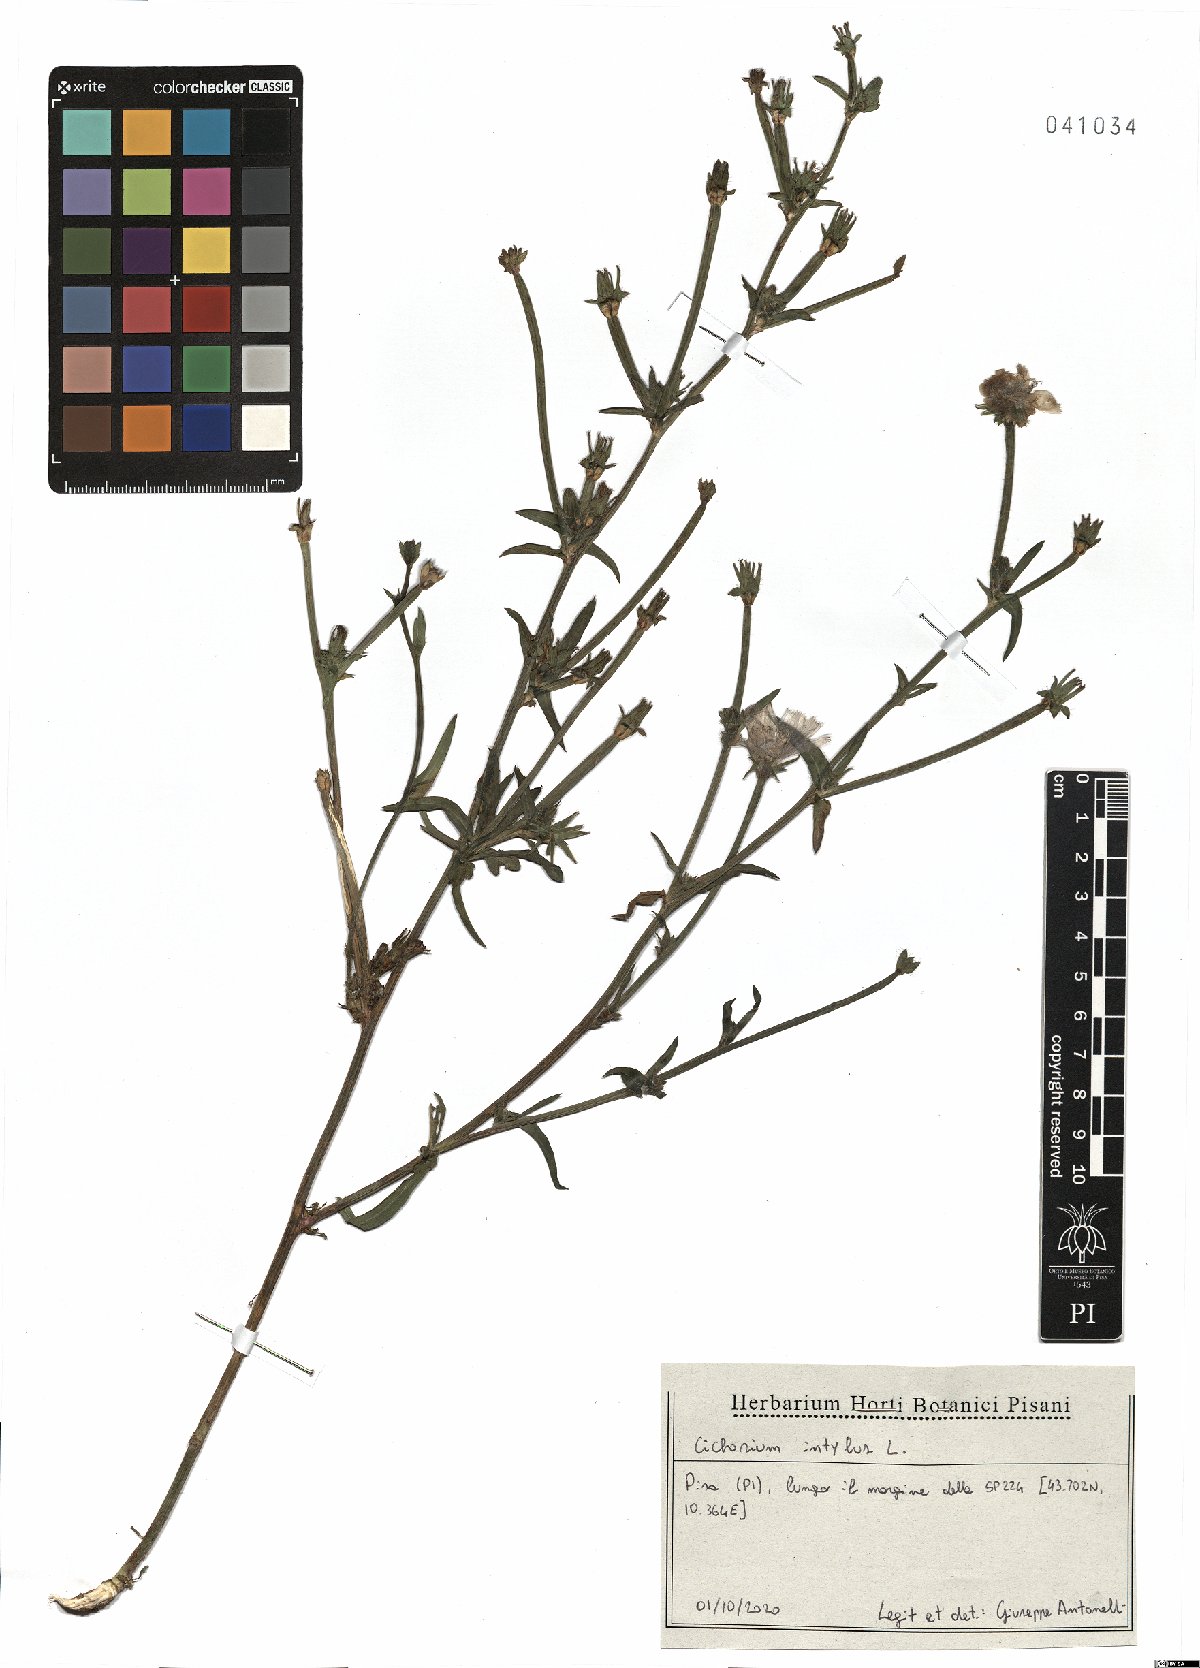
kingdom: Plantae
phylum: Tracheophyta
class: Magnoliopsida
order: Asterales
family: Asteraceae
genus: Cichorium
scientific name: Cichorium intybus
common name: Chicory
